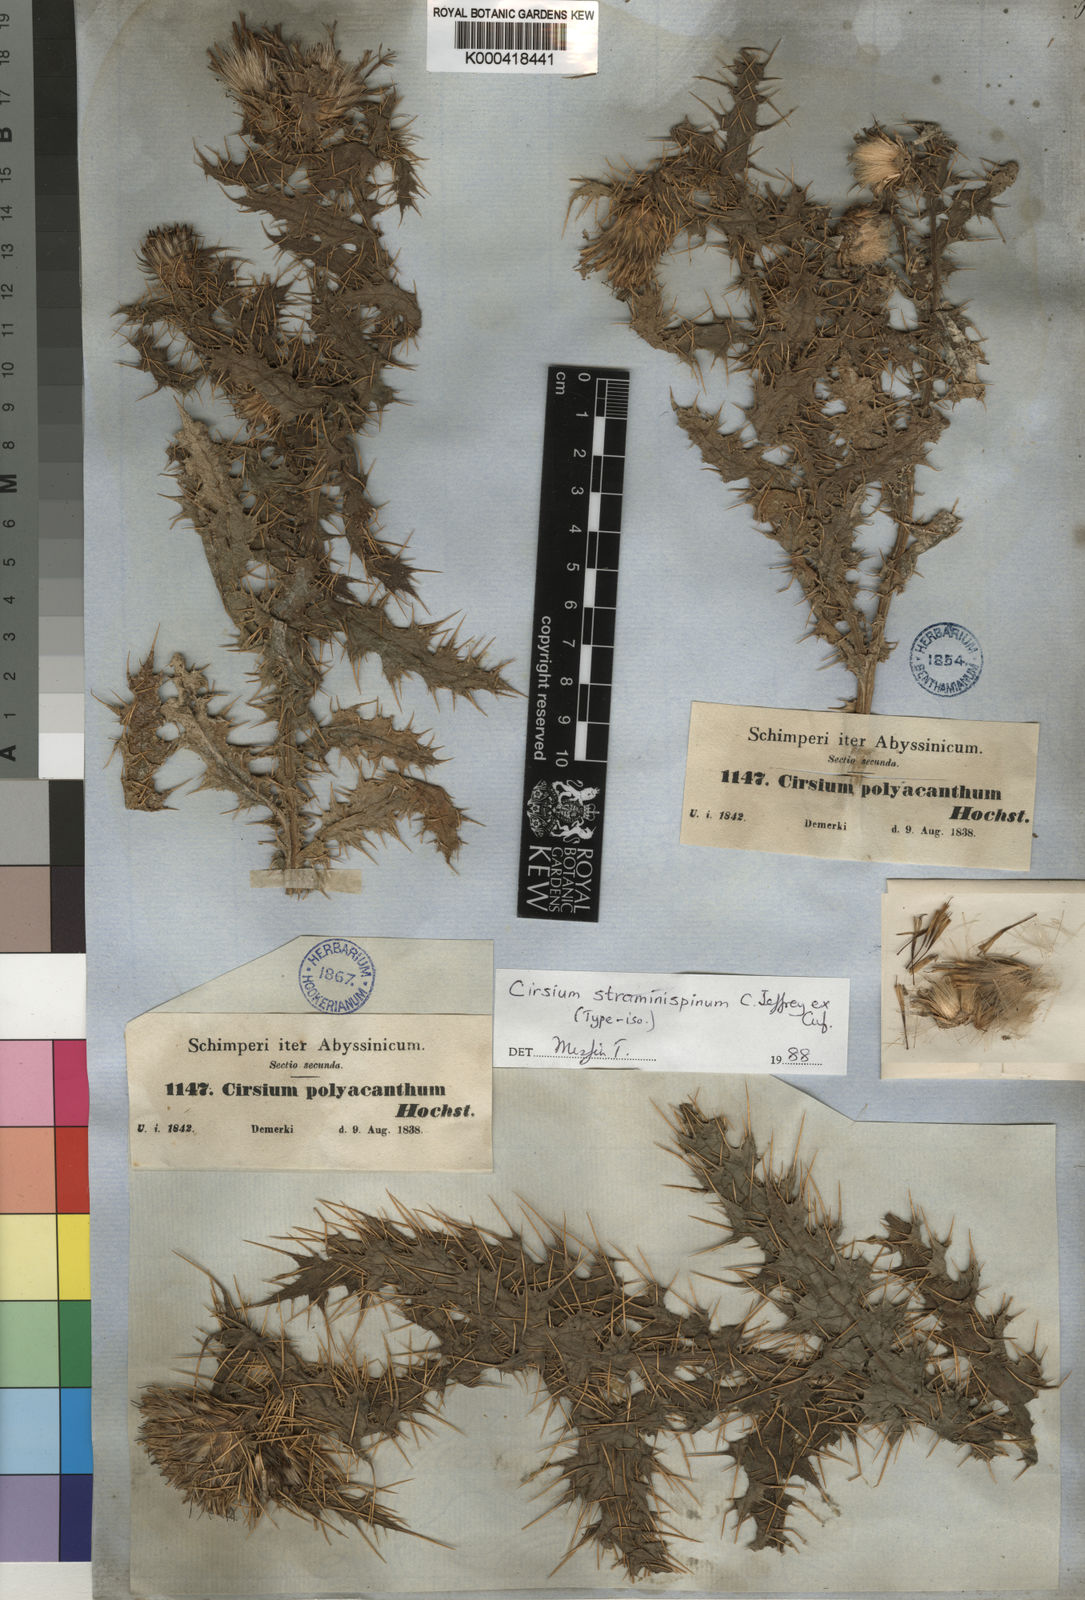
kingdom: Plantae
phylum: Tracheophyta
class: Magnoliopsida
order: Asterales
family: Asteraceae
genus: Cirsium
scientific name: Cirsium
